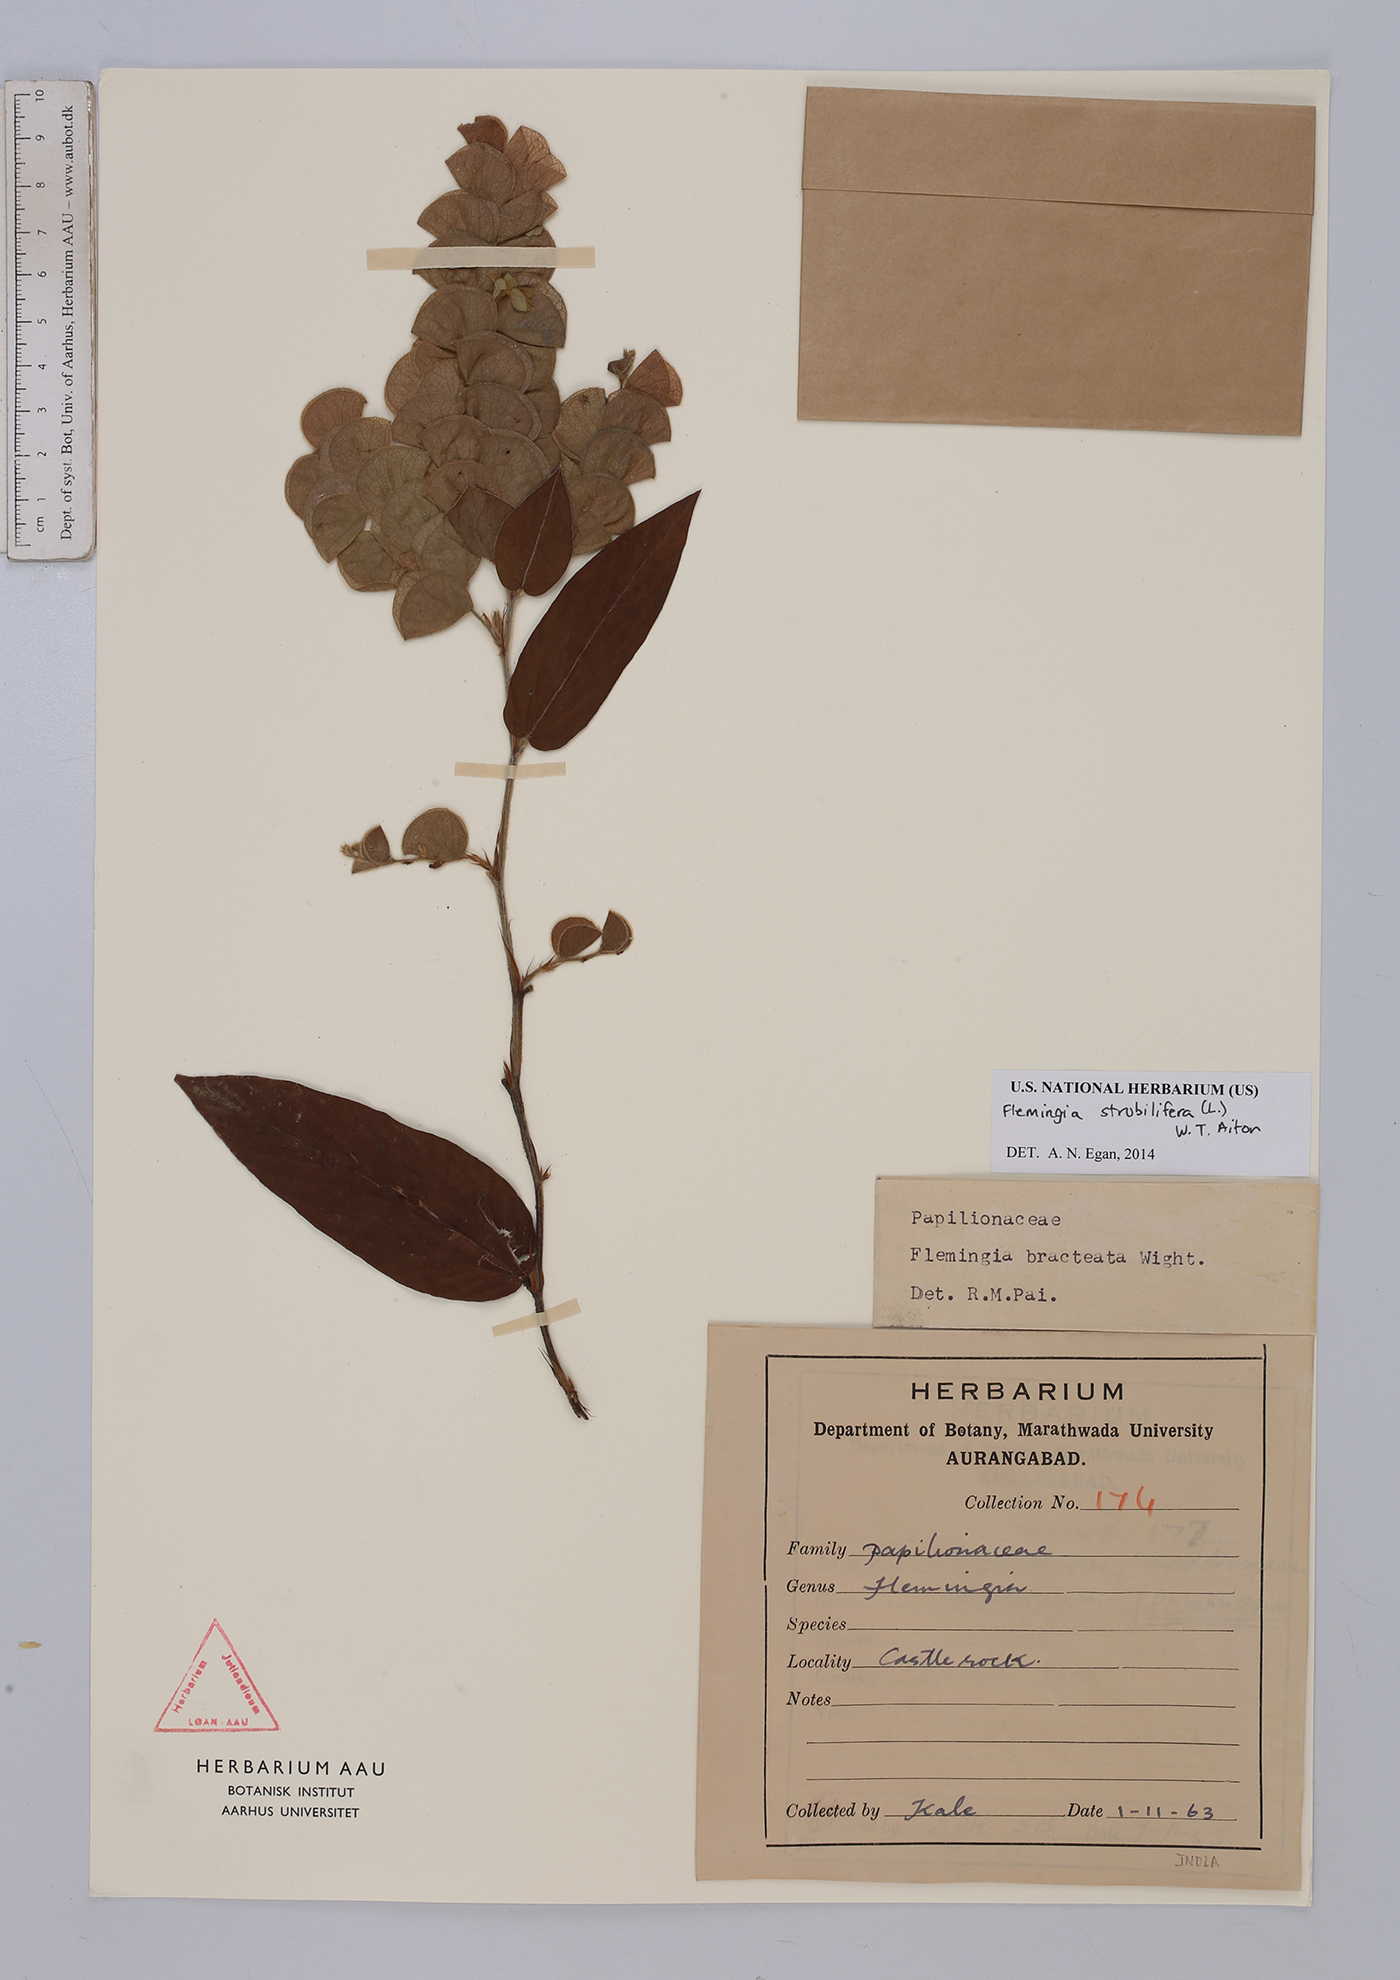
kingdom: Plantae
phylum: Tracheophyta
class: Magnoliopsida
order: Fabales
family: Fabaceae
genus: Flemingia
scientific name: Flemingia strobilifera
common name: Wild hops
